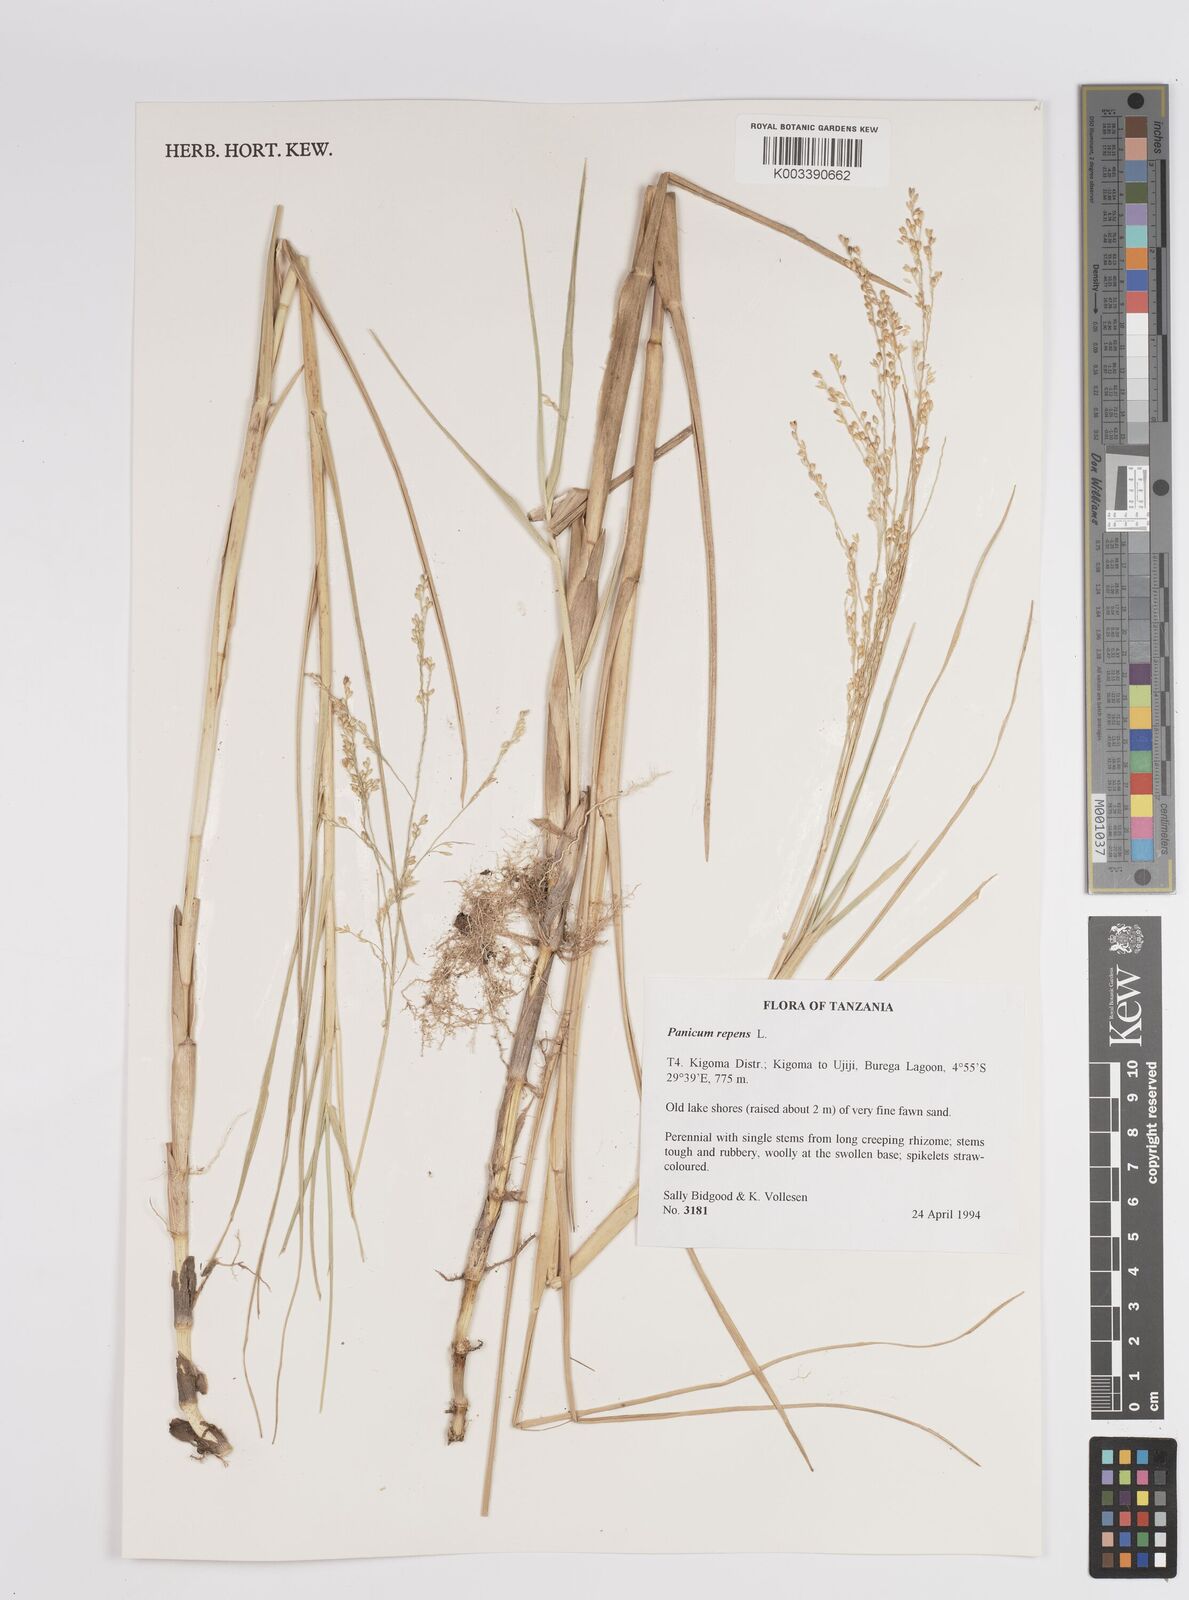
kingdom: Plantae
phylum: Tracheophyta
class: Liliopsida
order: Poales
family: Poaceae
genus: Panicum
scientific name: Panicum repens
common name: Torpedo grass
